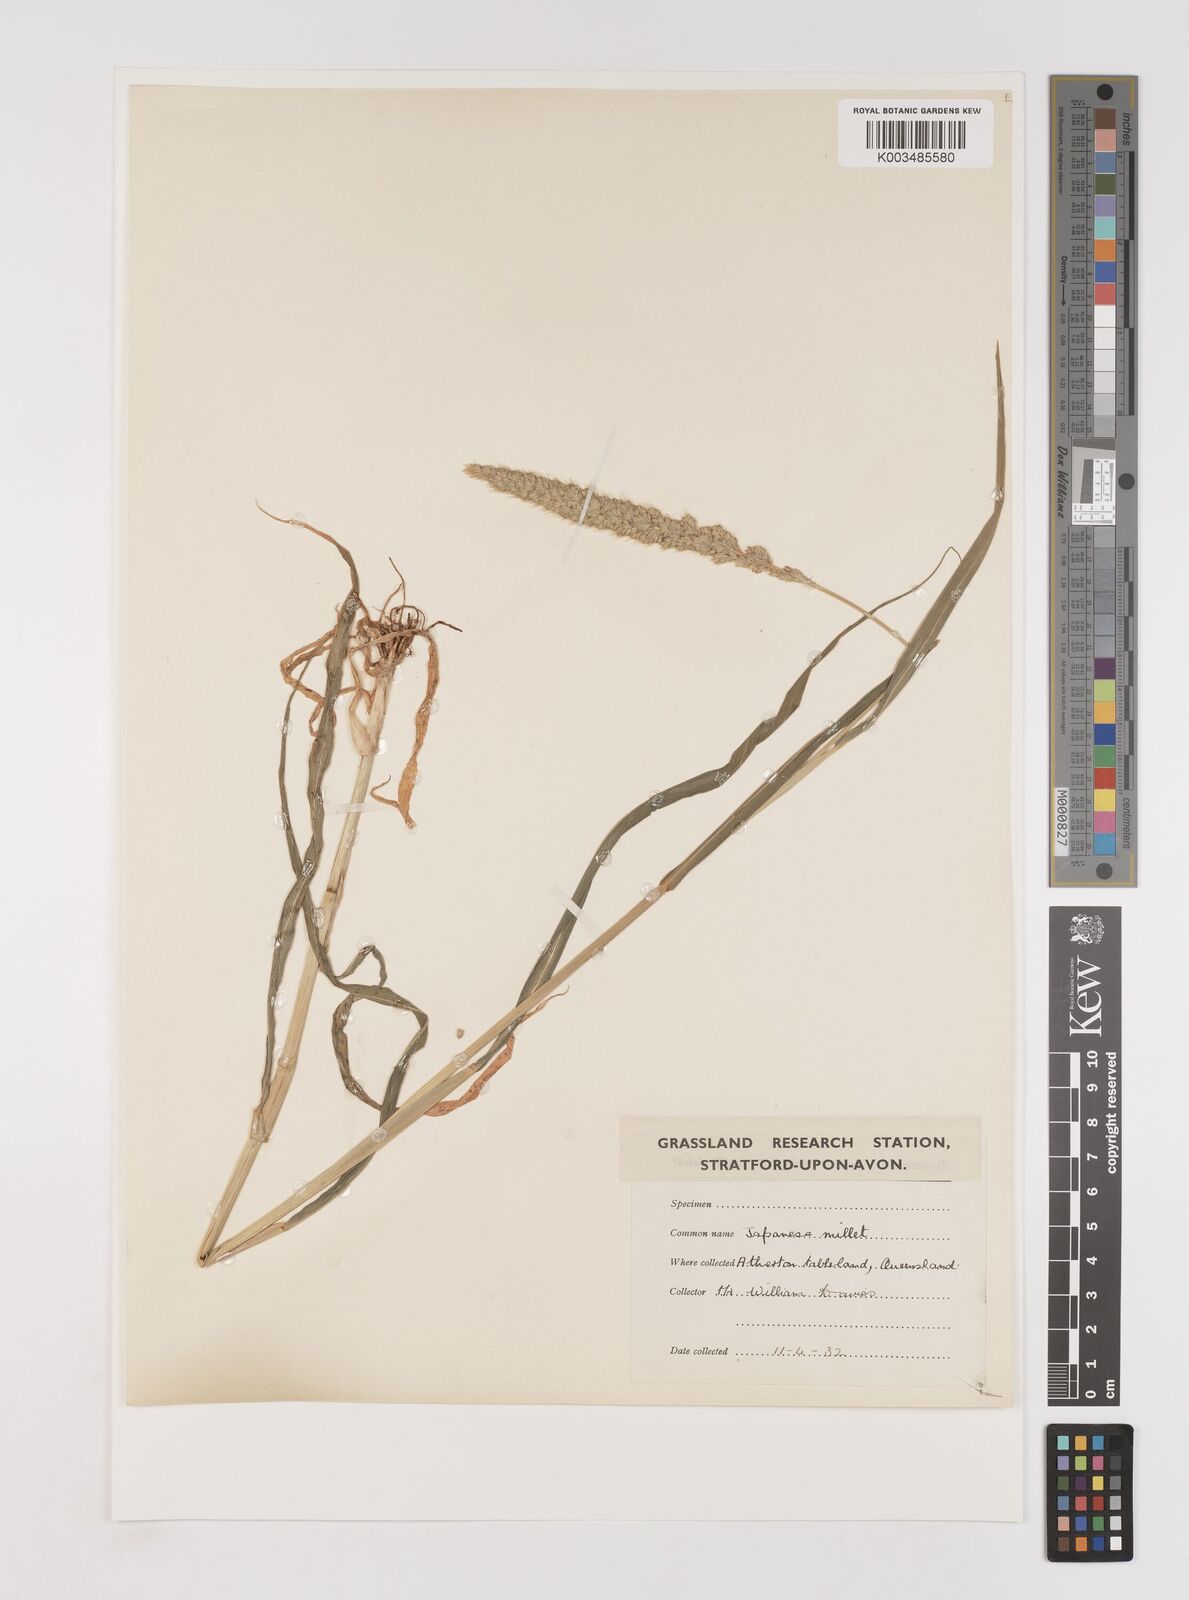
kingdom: Plantae
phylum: Tracheophyta
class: Liliopsida
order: Poales
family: Poaceae
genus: Setaria
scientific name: Setaria
